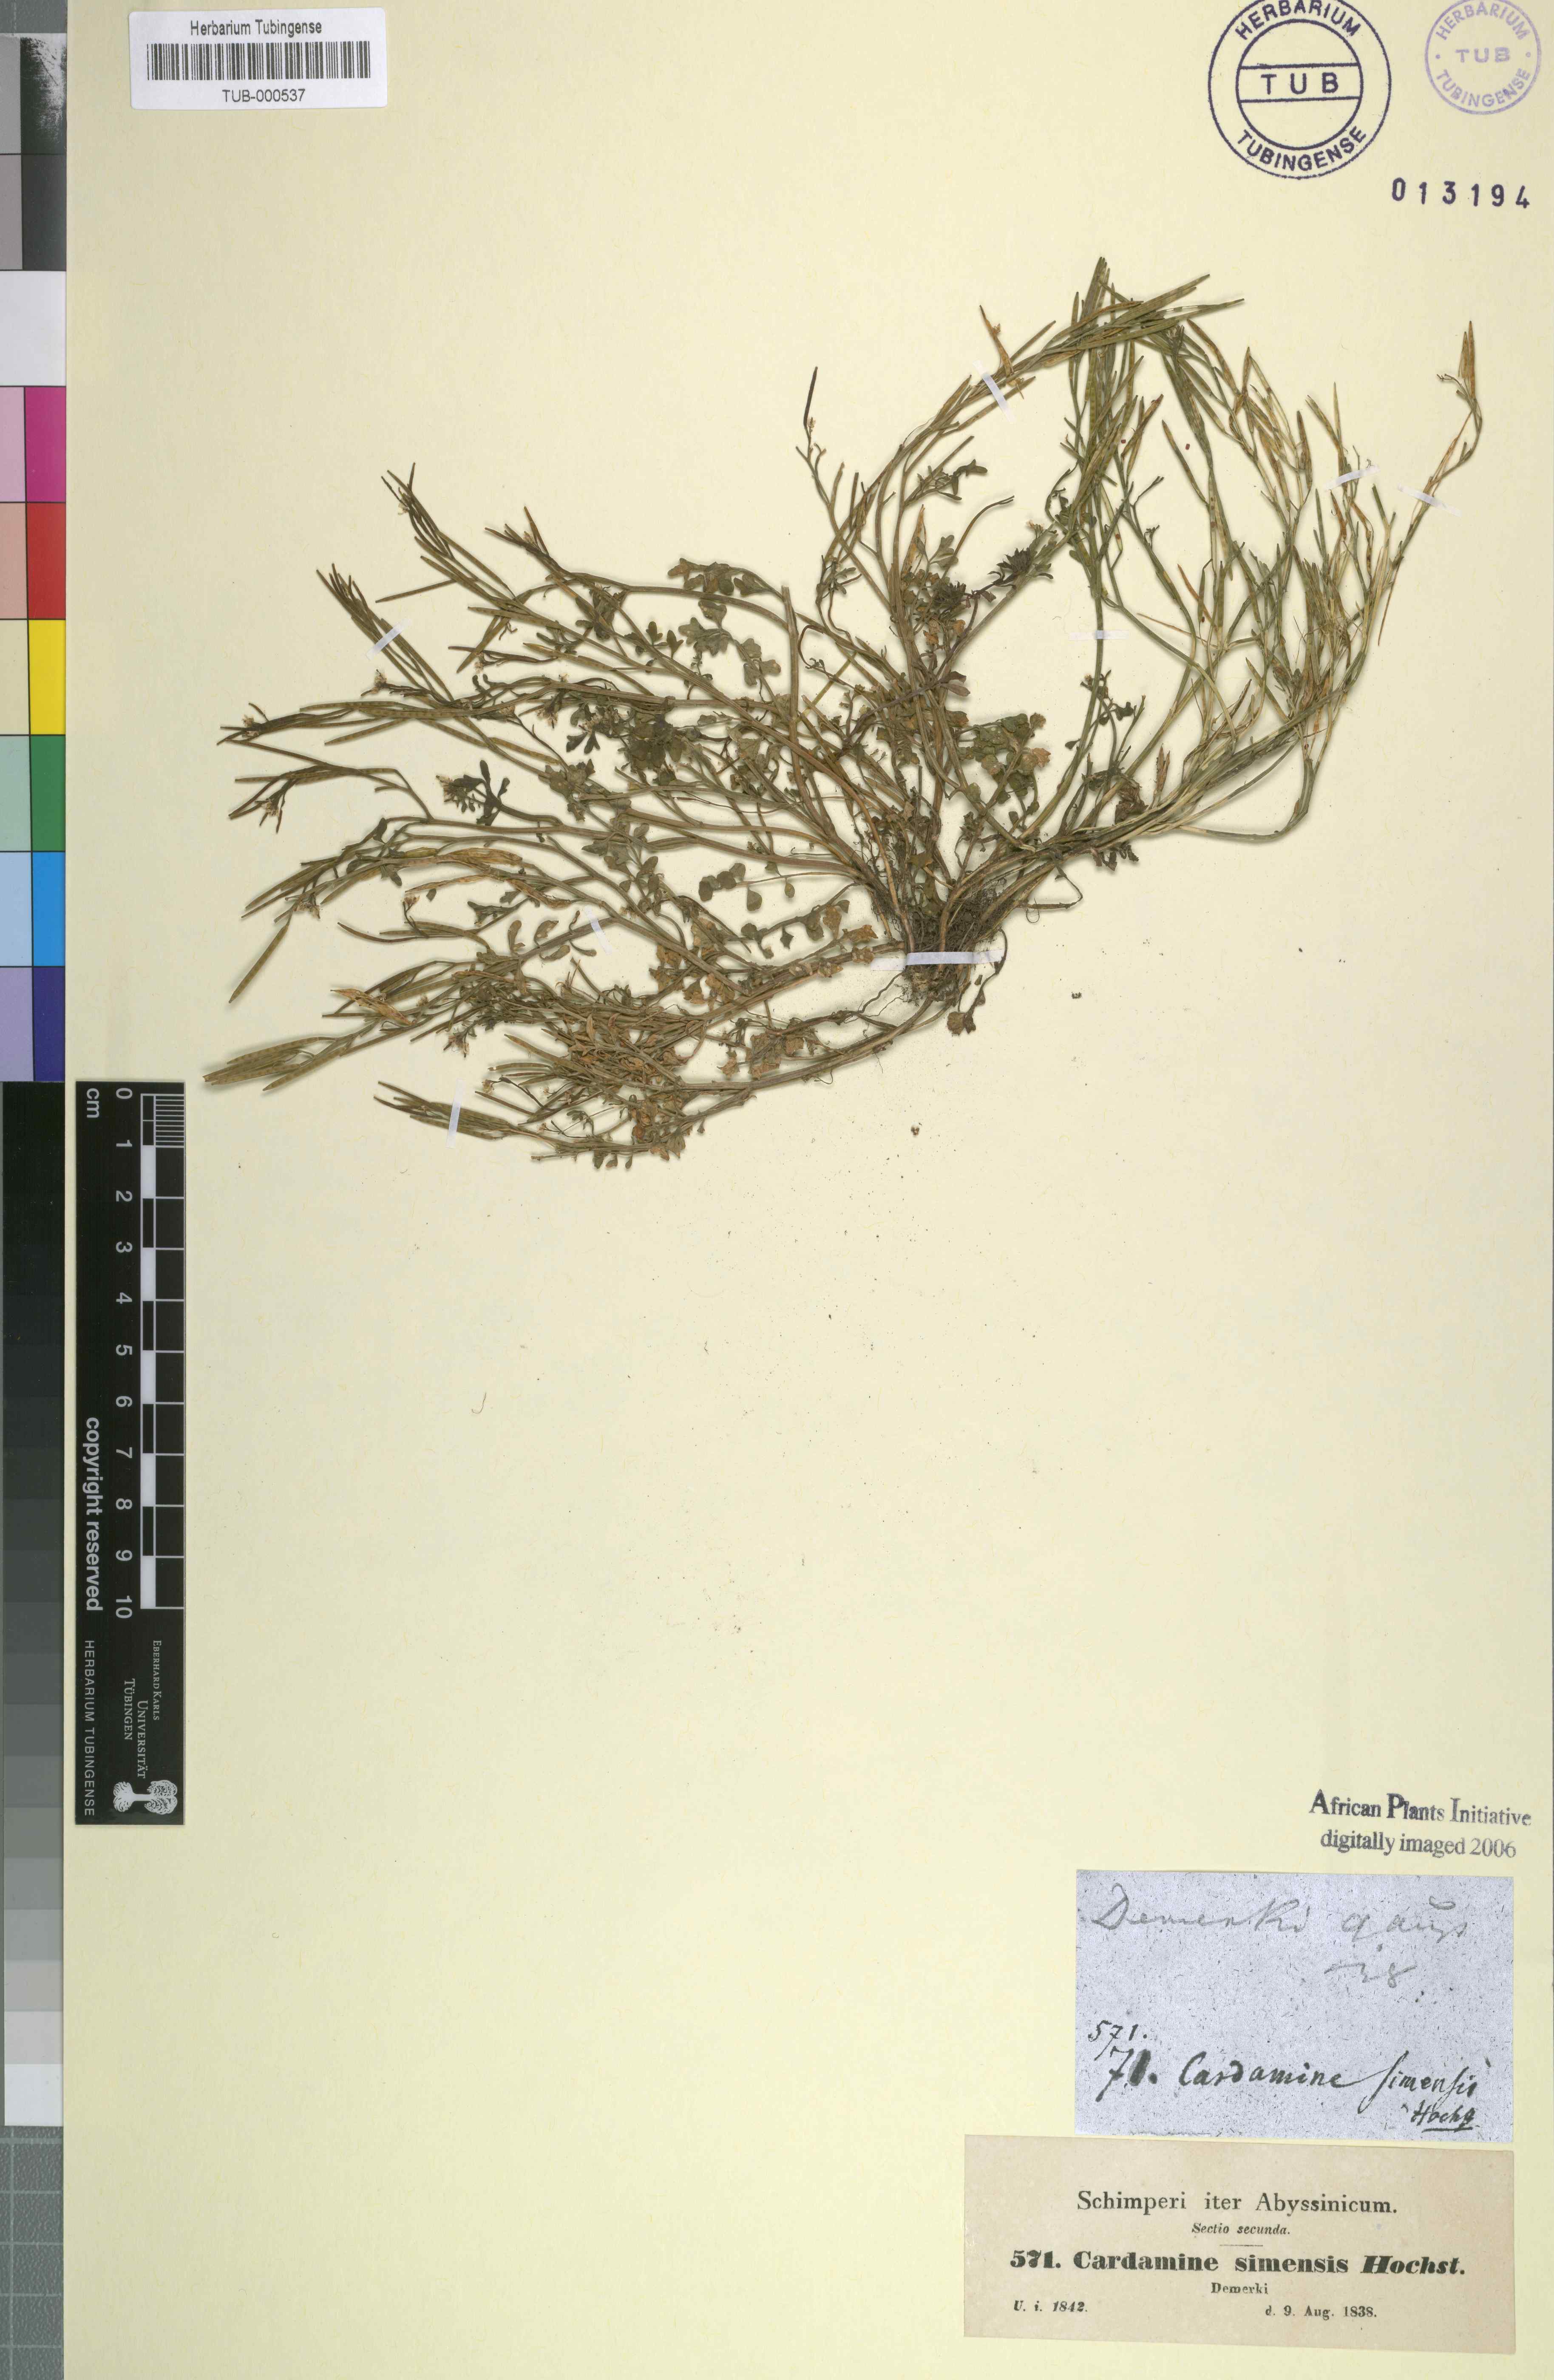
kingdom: Plantae
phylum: Tracheophyta
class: Magnoliopsida
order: Brassicales
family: Brassicaceae
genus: Cardamine
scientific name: Cardamine hirsuta
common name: Hairy bittercress
